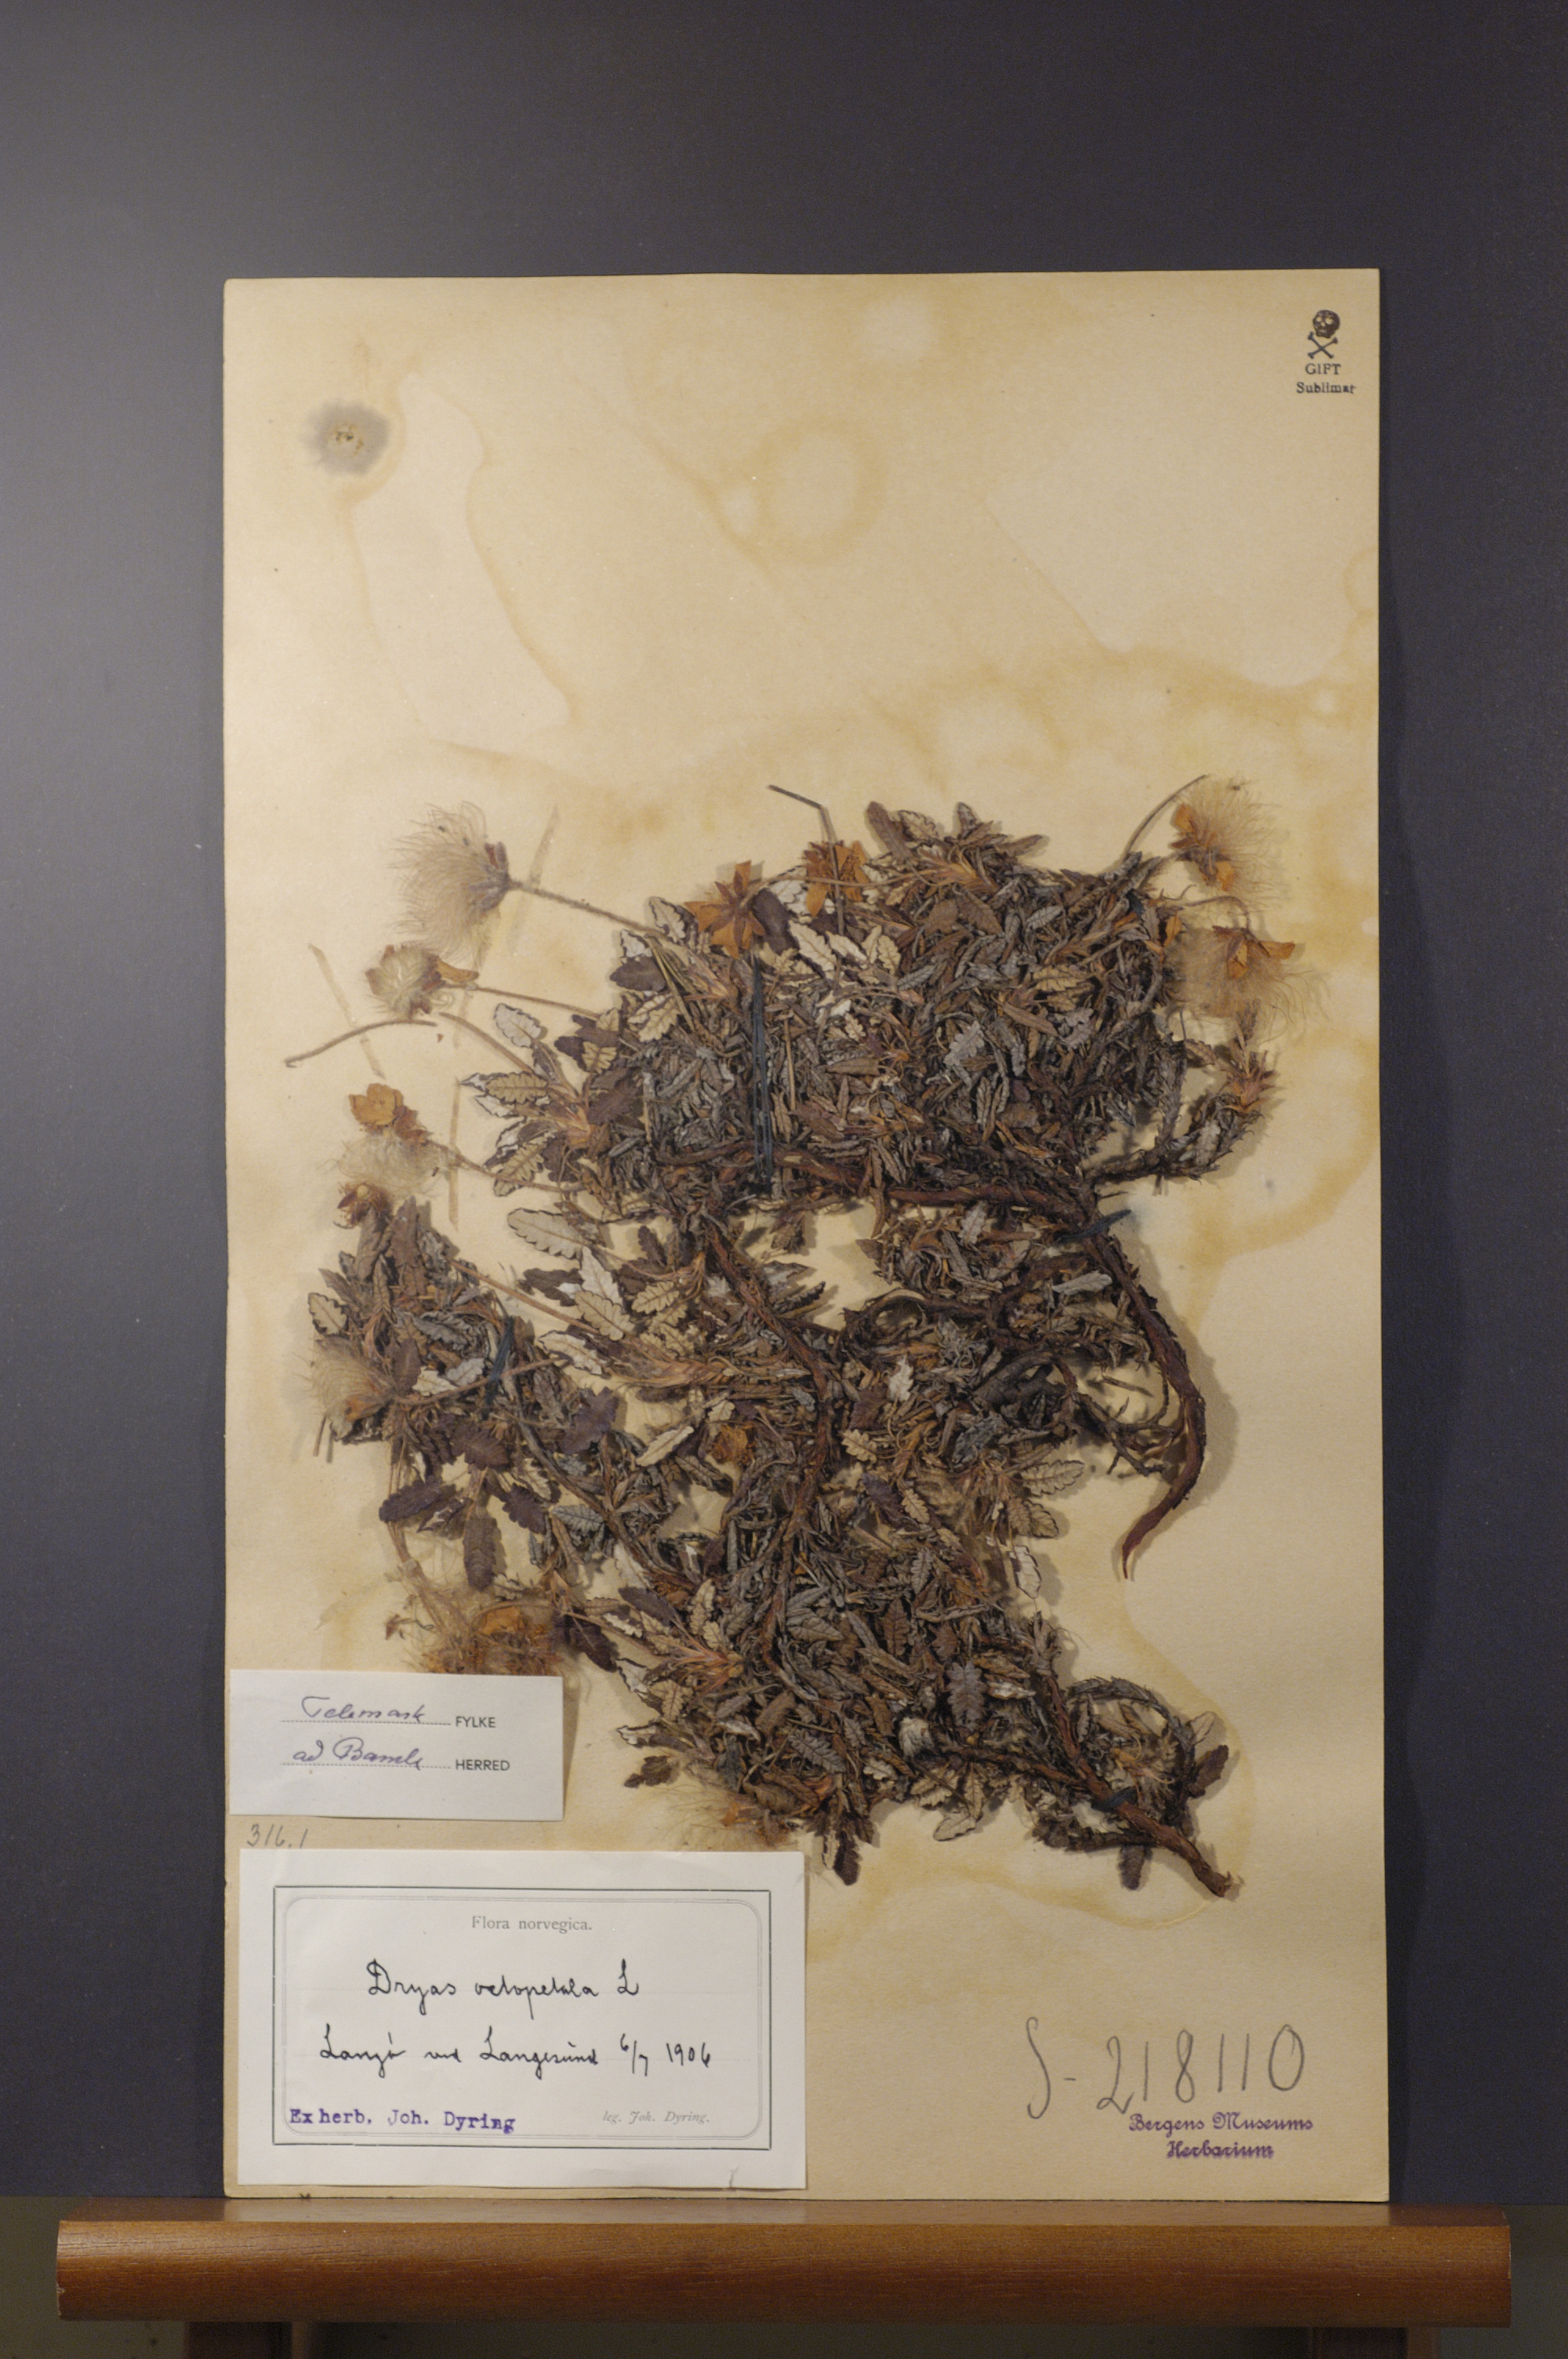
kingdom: Plantae
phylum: Tracheophyta
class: Magnoliopsida
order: Rosales
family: Rosaceae
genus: Dryas
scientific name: Dryas octopetala
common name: Eight-petal mountain-avens
